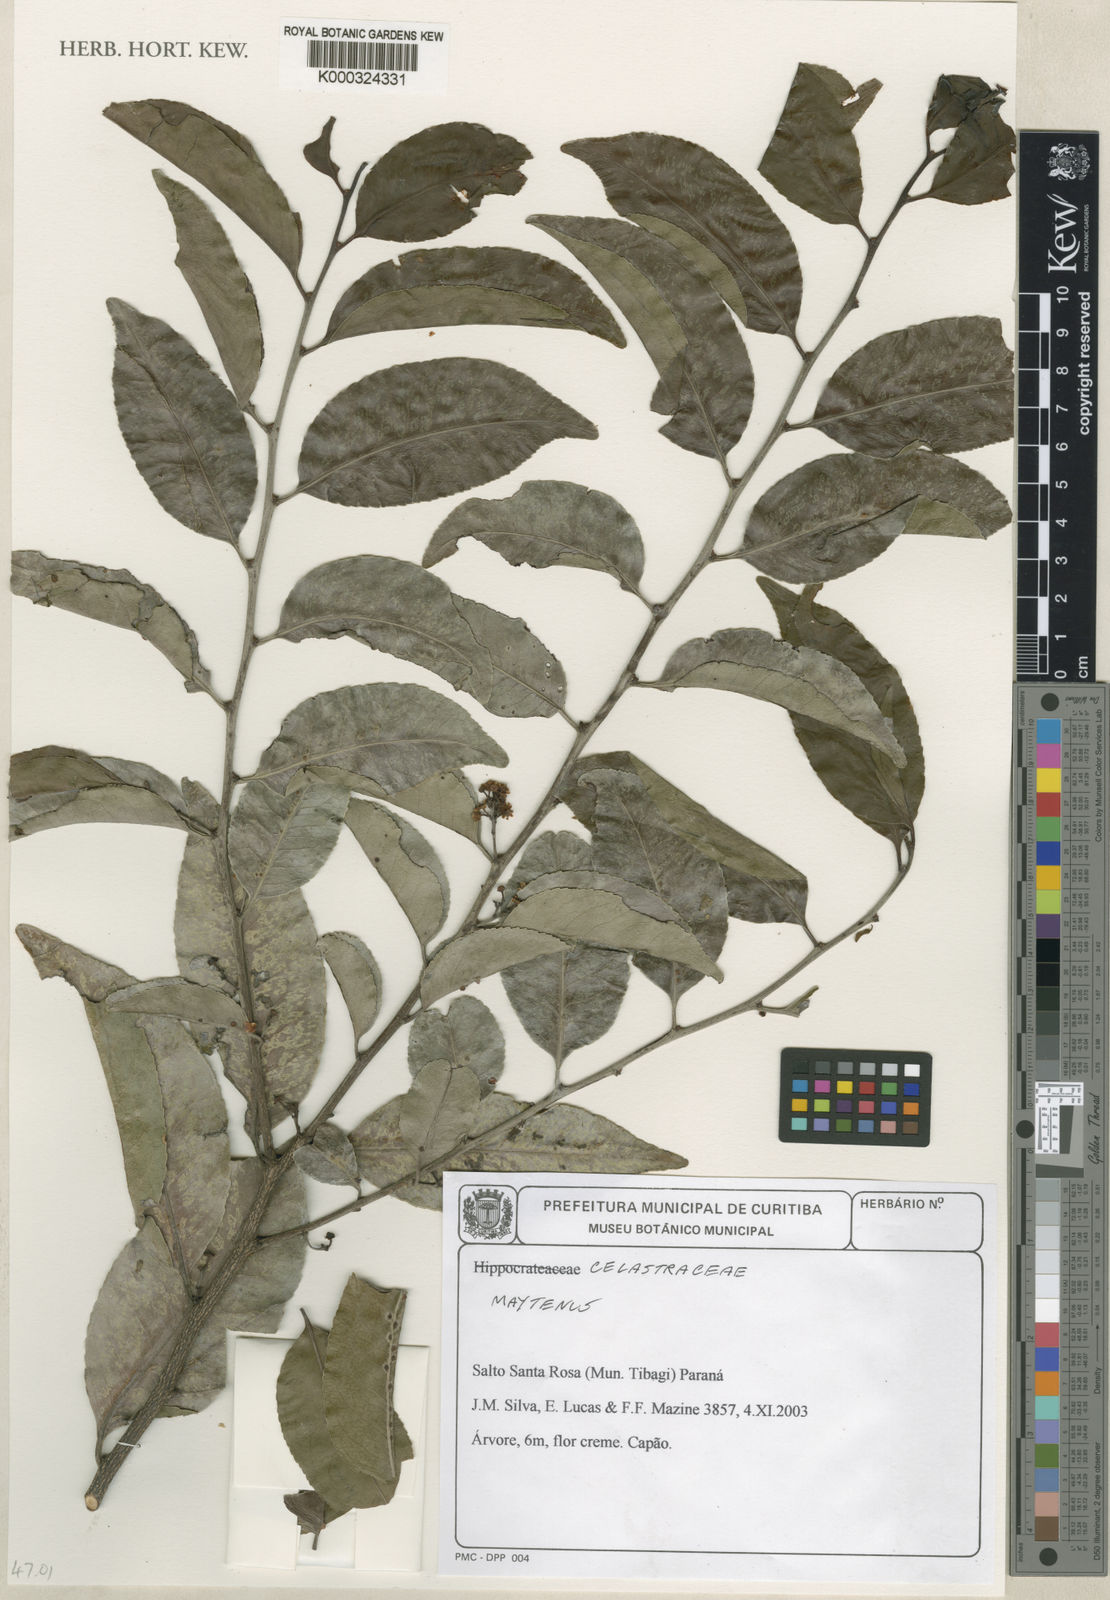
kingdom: Plantae
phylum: Tracheophyta
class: Magnoliopsida
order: Celastrales
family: Celastraceae
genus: Maytenus
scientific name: Maytenus
